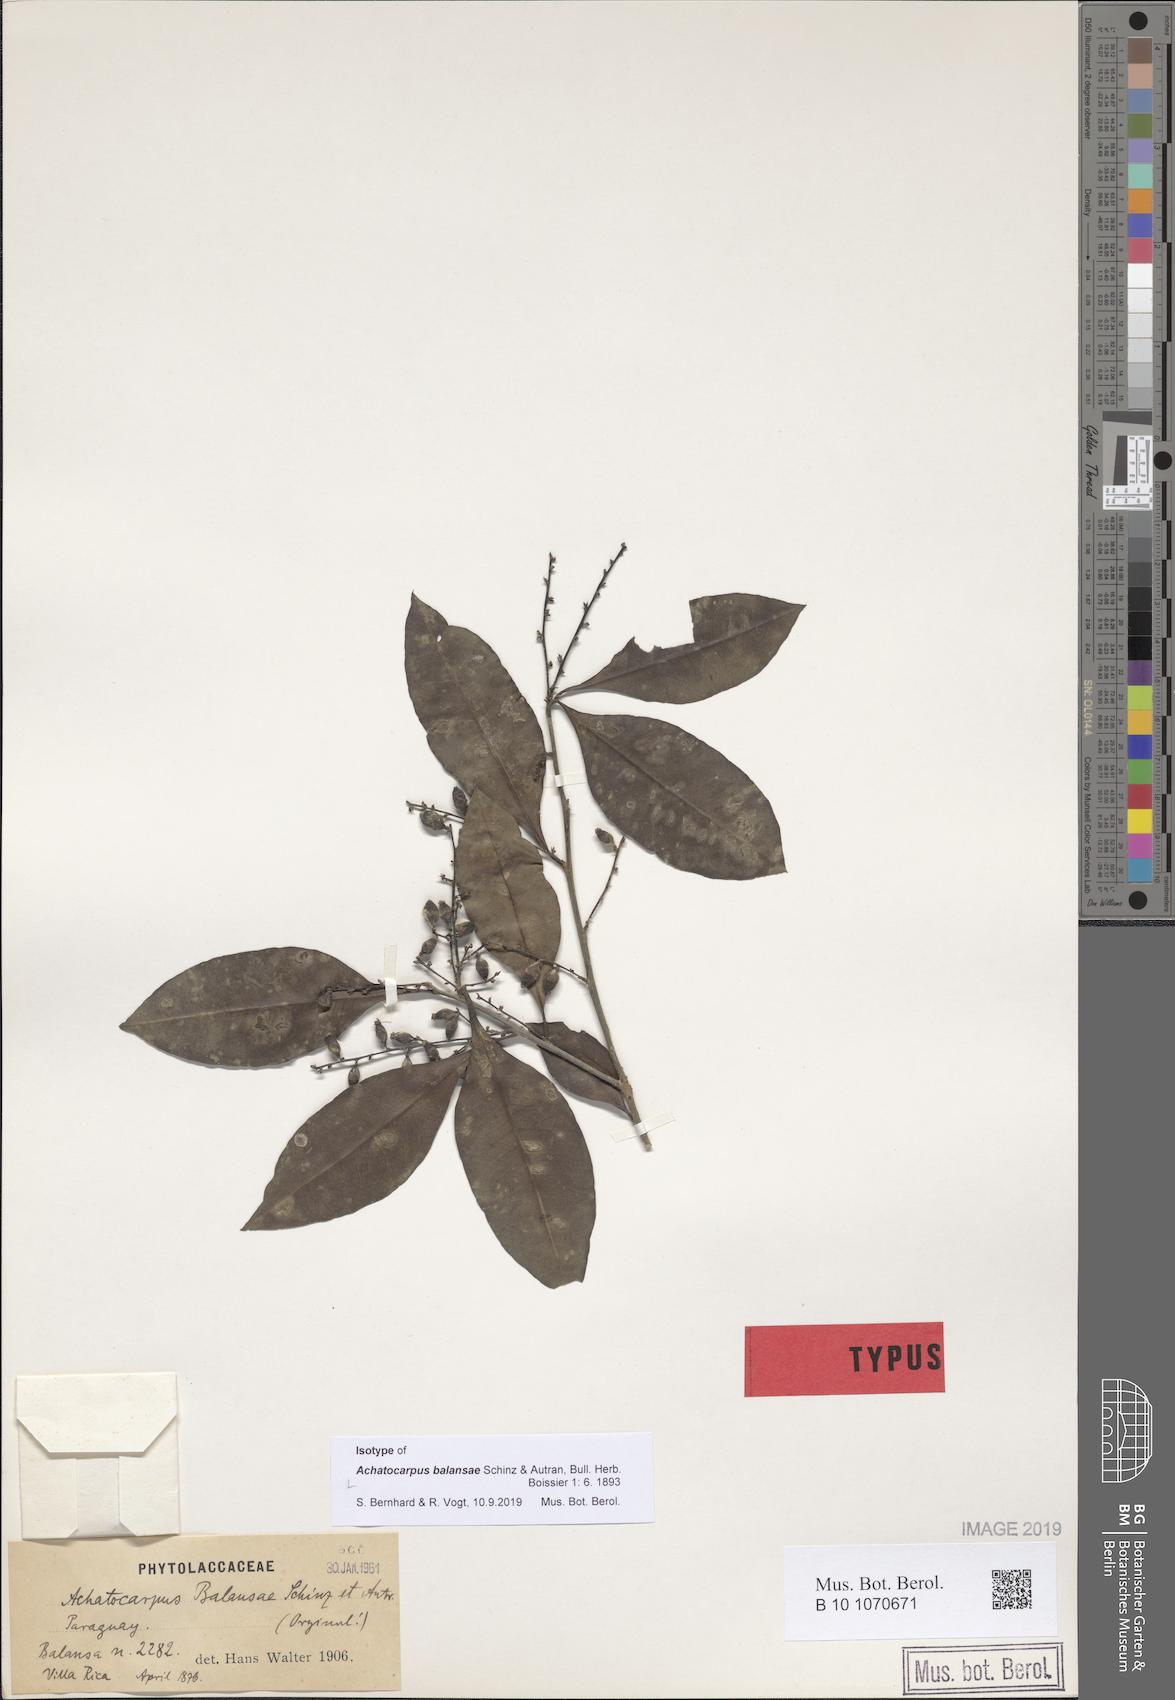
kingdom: Plantae
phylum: Tracheophyta
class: Magnoliopsida
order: Caryophyllales
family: Achatocarpaceae
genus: Achatocarpus
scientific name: Achatocarpus balansae
